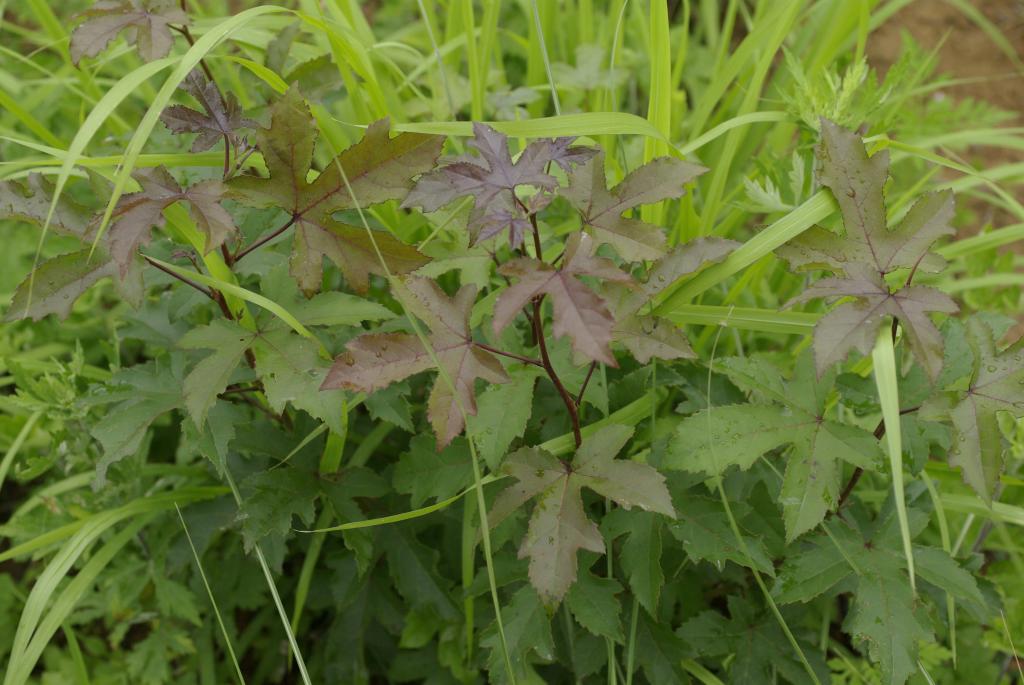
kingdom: Plantae
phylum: Tracheophyta
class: Magnoliopsida
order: Saxifragales
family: Altingiaceae
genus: Liquidambar
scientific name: Liquidambar formosana
